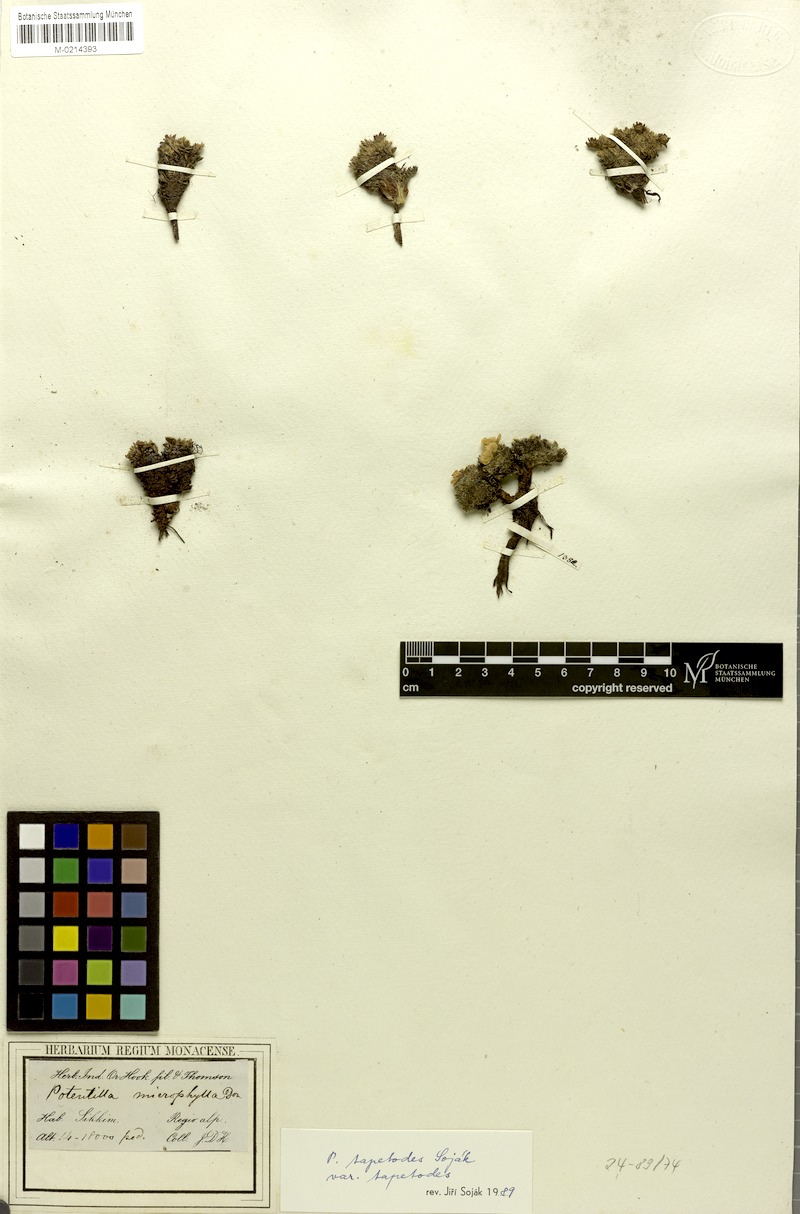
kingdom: Plantae
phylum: Tracheophyta
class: Magnoliopsida
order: Rosales
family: Rosaceae
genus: Argentina
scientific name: Argentina tapetodes
